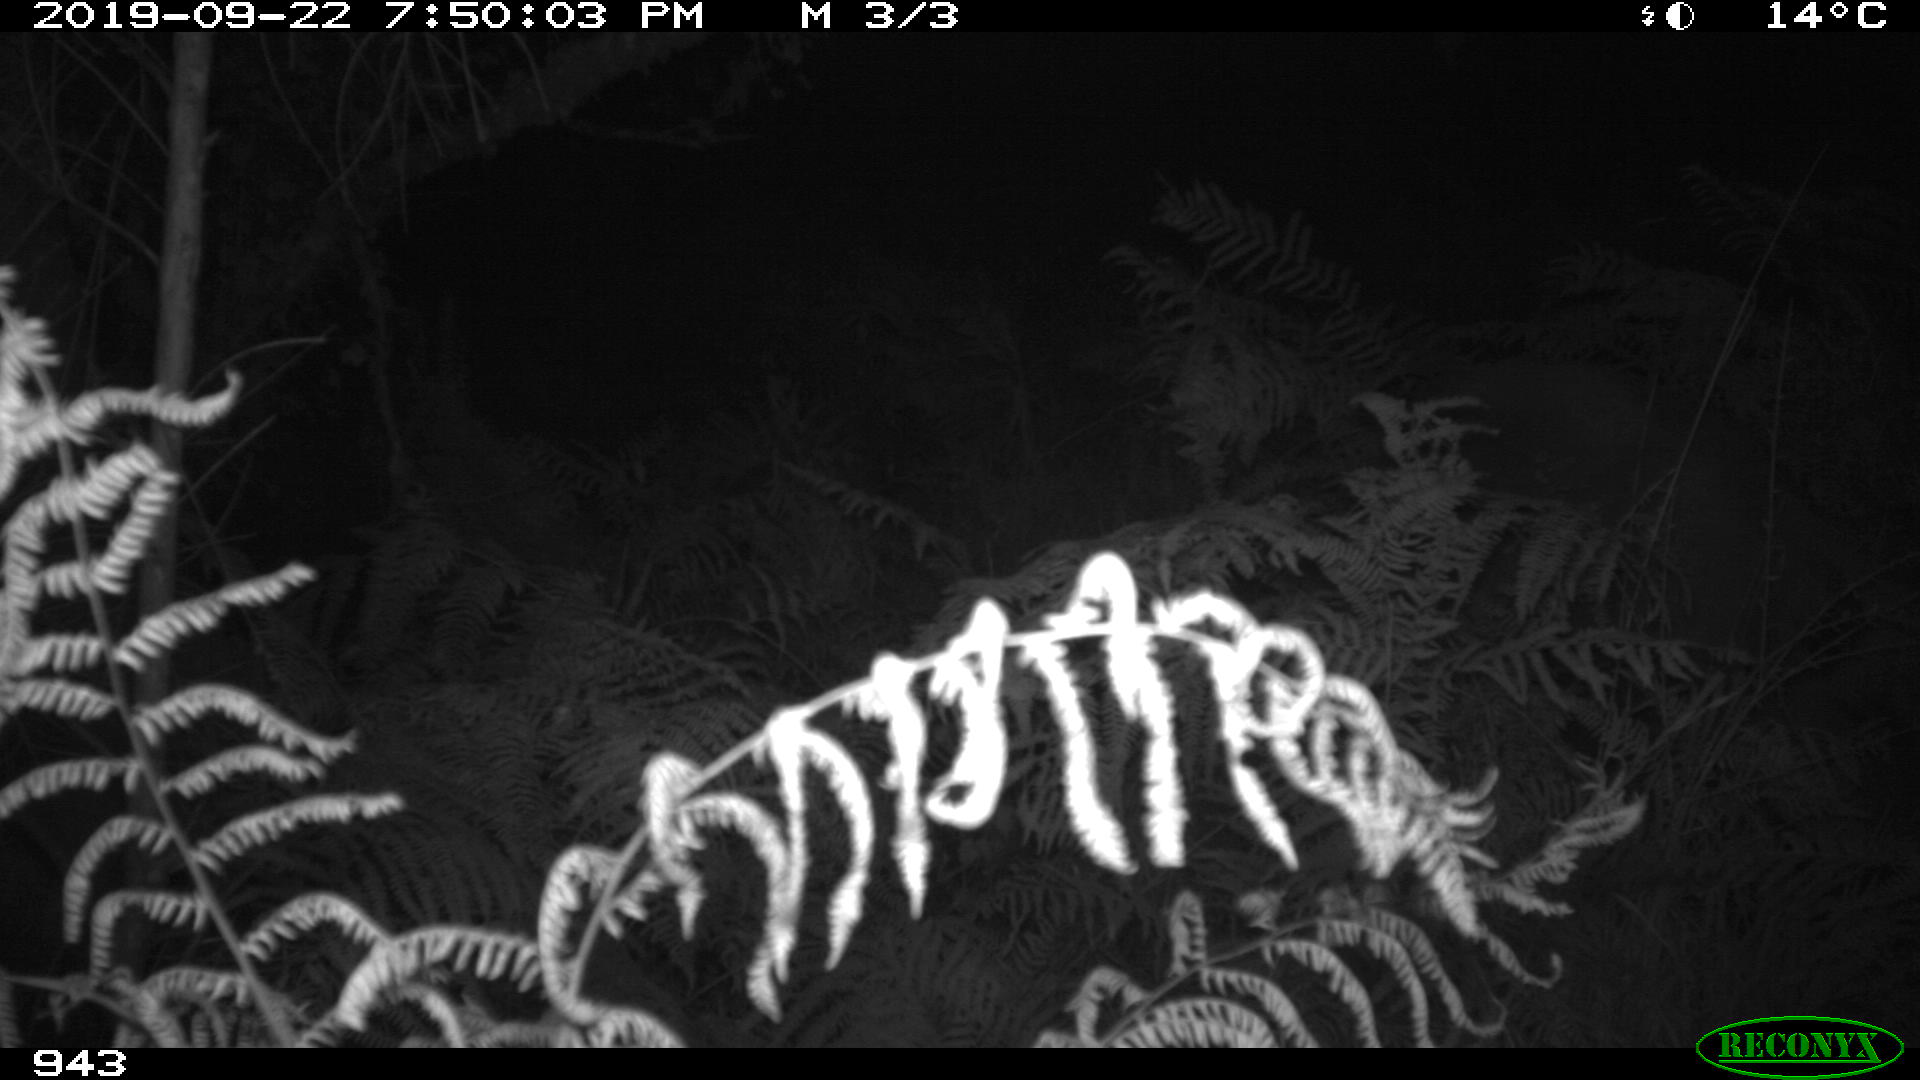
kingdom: Animalia
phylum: Chordata
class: Mammalia
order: Artiodactyla
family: Suidae
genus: Sus
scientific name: Sus scrofa
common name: Wild boar
